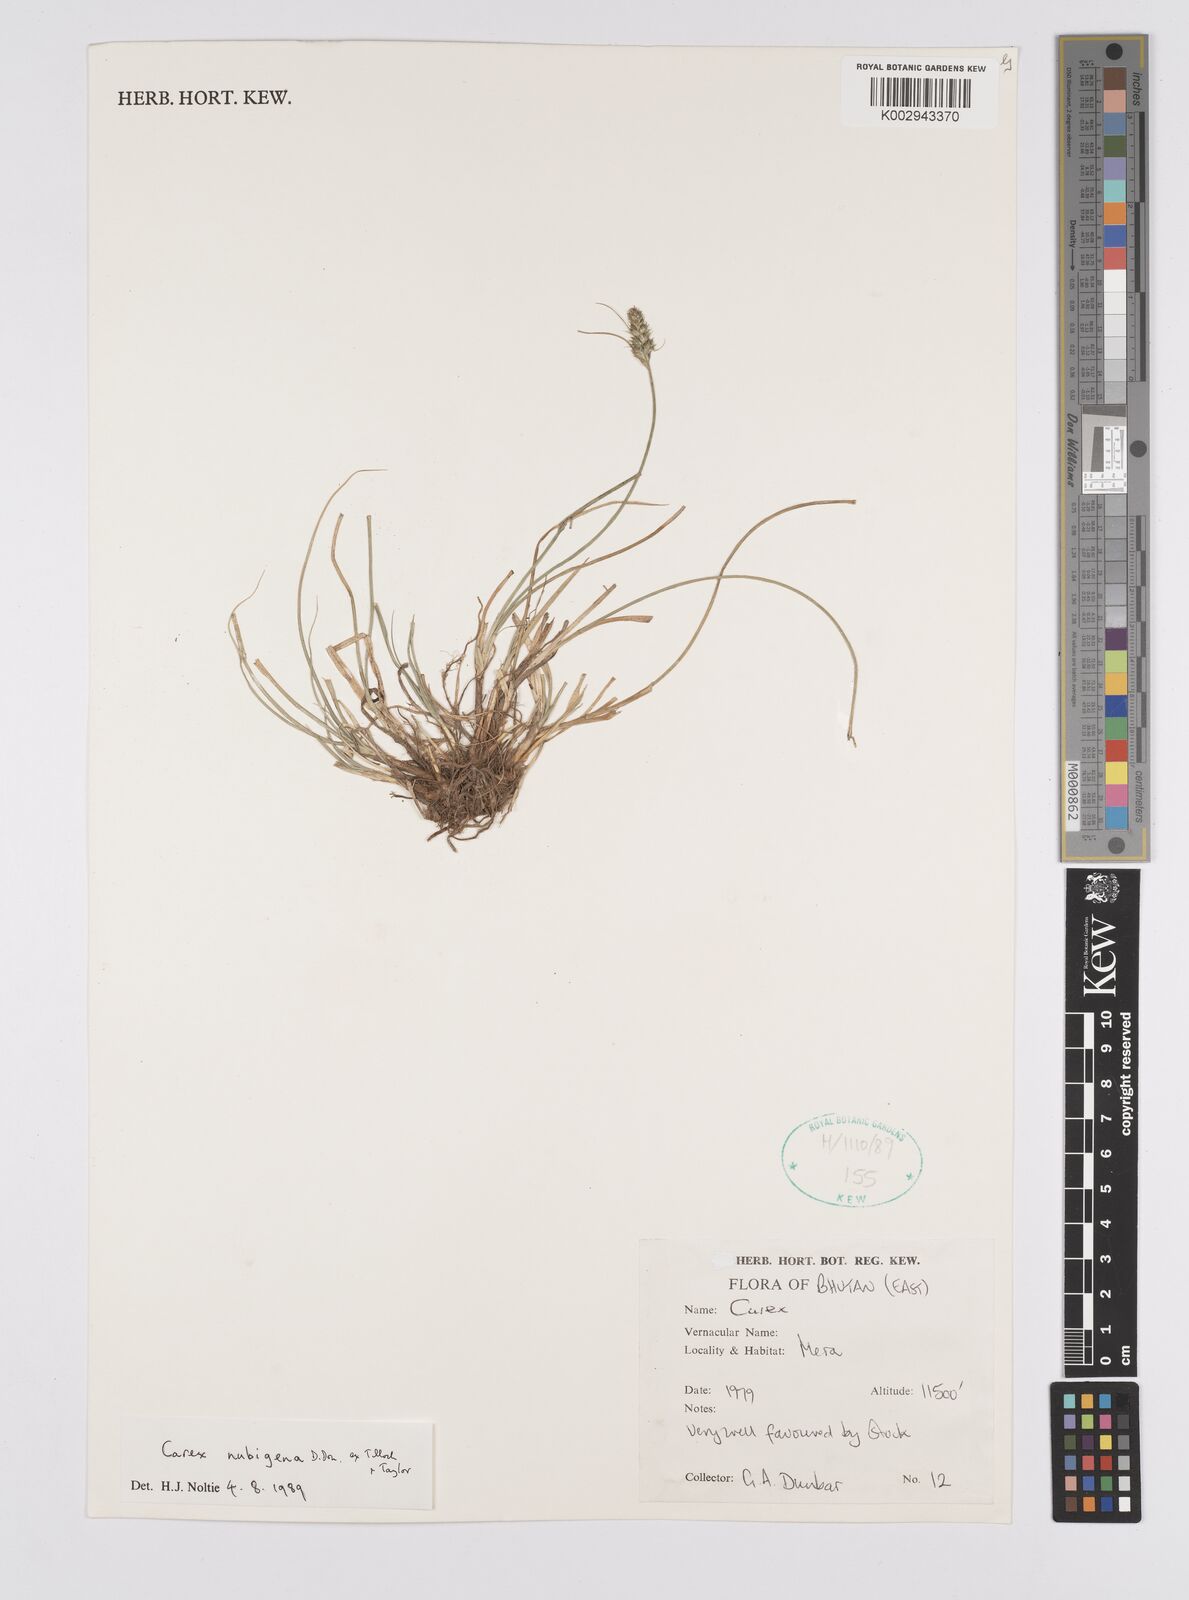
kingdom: Plantae
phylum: Tracheophyta
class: Liliopsida
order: Poales
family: Cyperaceae
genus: Carex
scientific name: Carex nubigena
